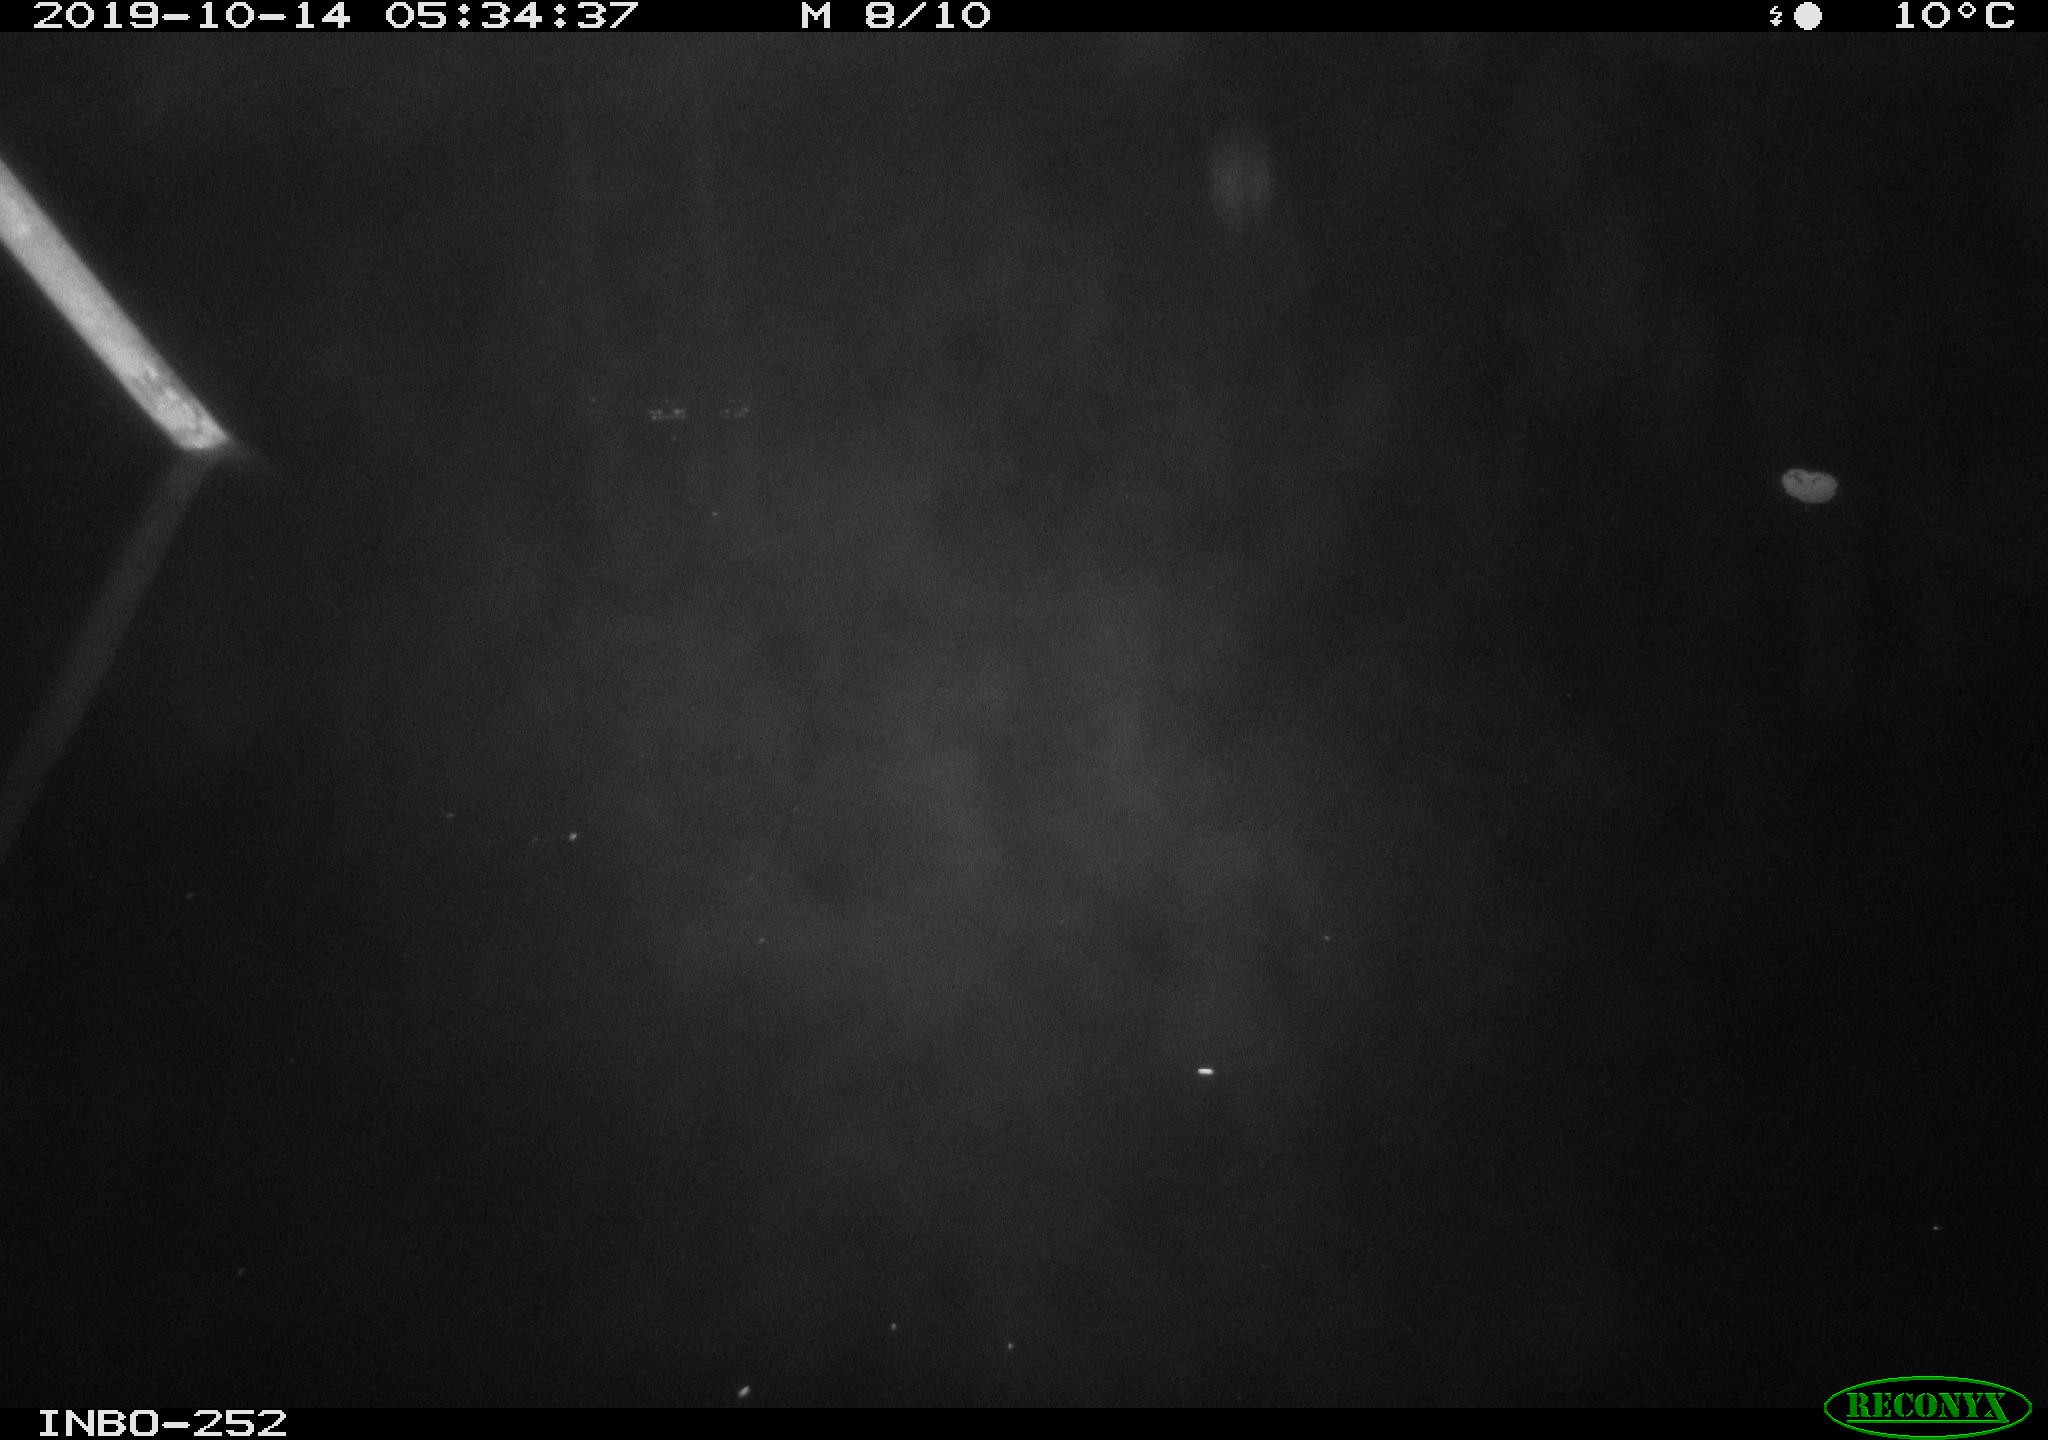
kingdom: Animalia
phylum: Chordata
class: Aves
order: Anseriformes
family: Anatidae
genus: Anas
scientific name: Anas platyrhynchos
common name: Mallard
